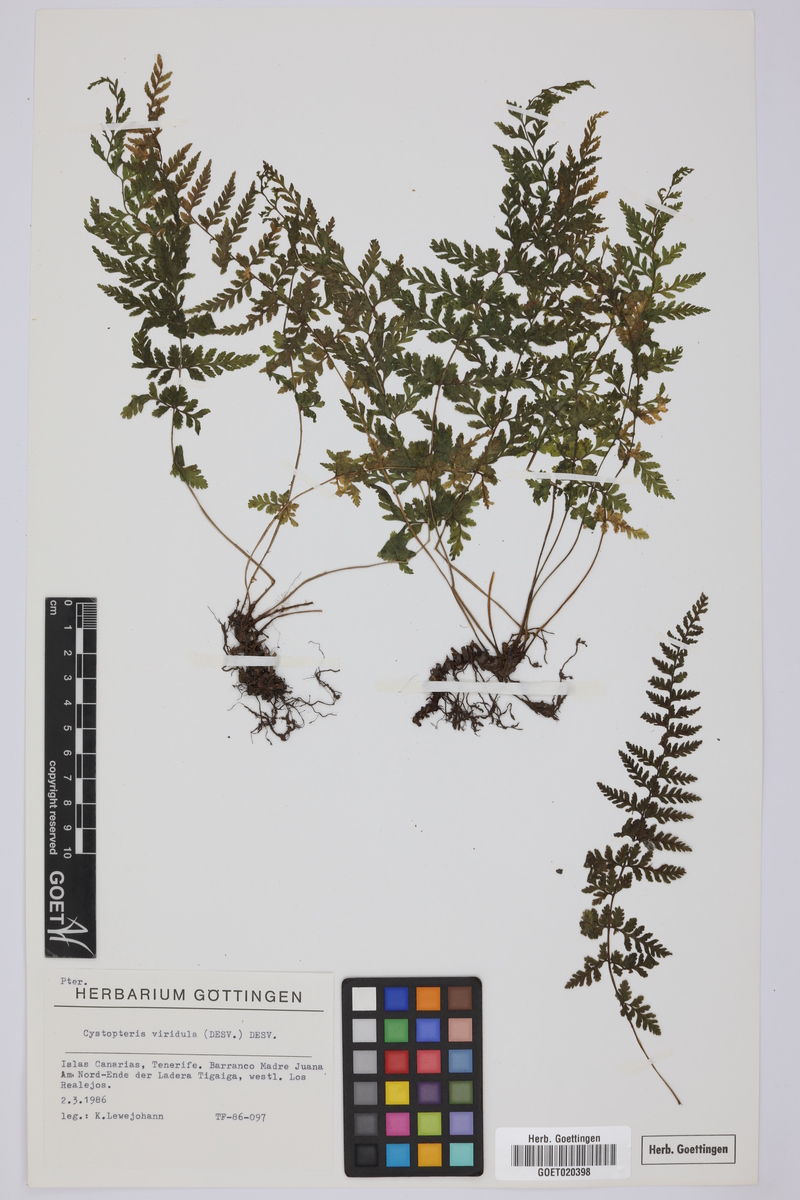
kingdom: Plantae
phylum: Tracheophyta
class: Polypodiopsida
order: Polypodiales
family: Cystopteridaceae
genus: Cystopteris
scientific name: Cystopteris diaphana
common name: Greenish bladder-fern
